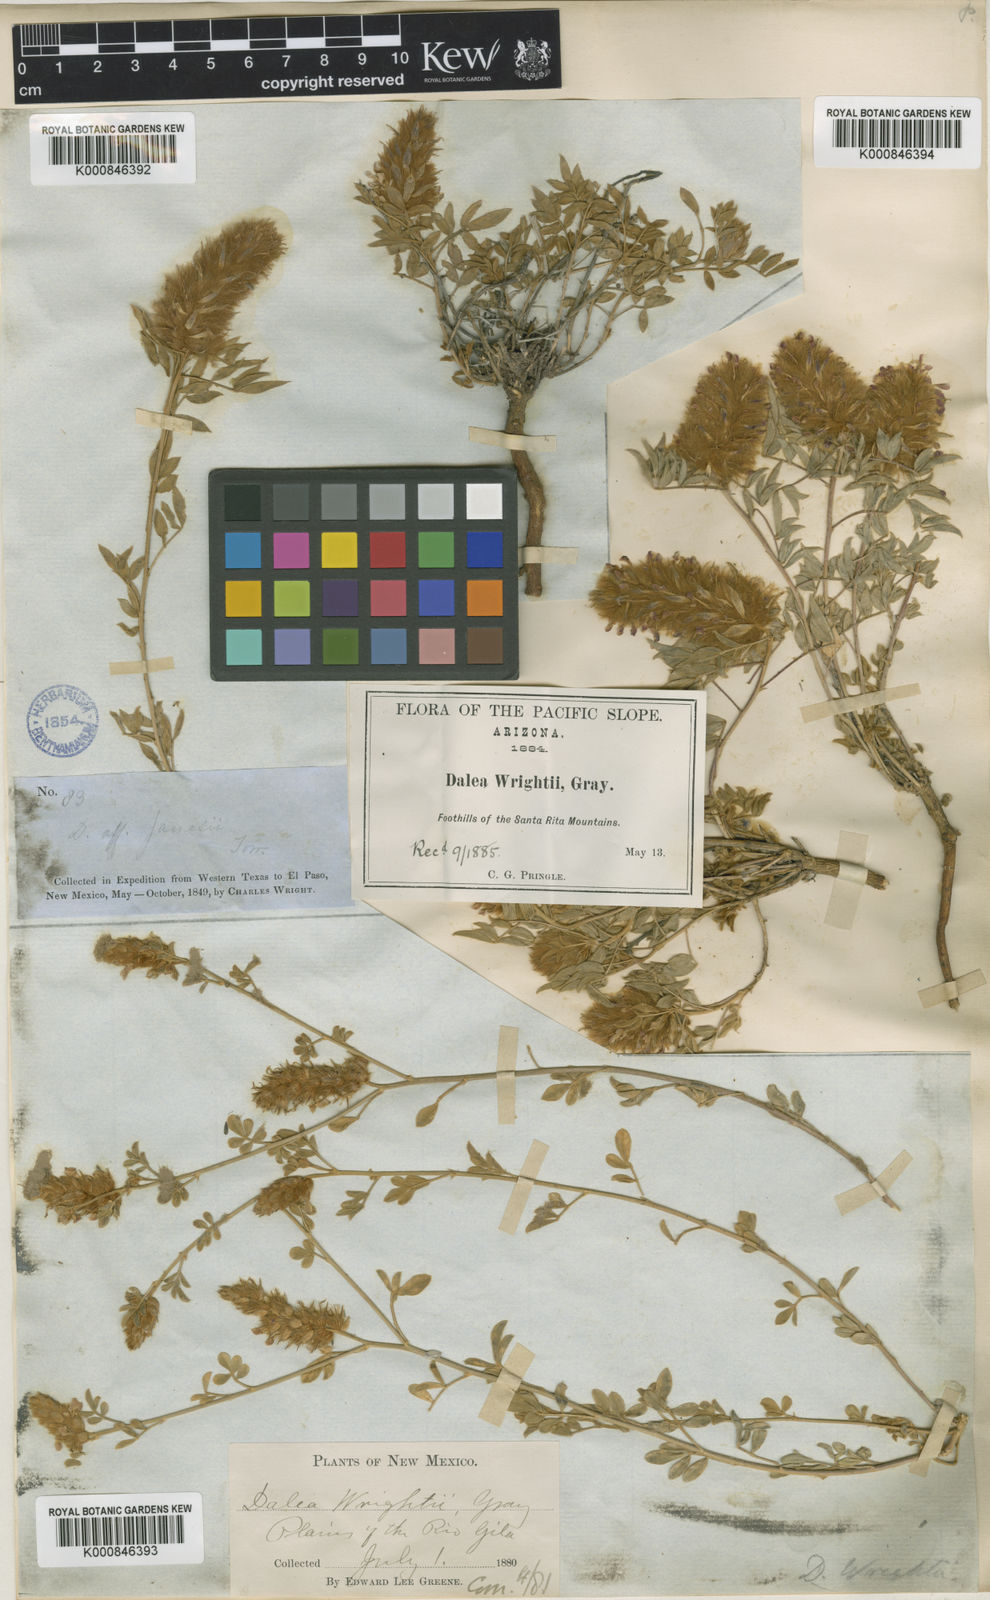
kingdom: Plantae
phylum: Tracheophyta
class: Magnoliopsida
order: Fabales
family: Fabaceae
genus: Dalea
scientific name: Dalea wrightii
